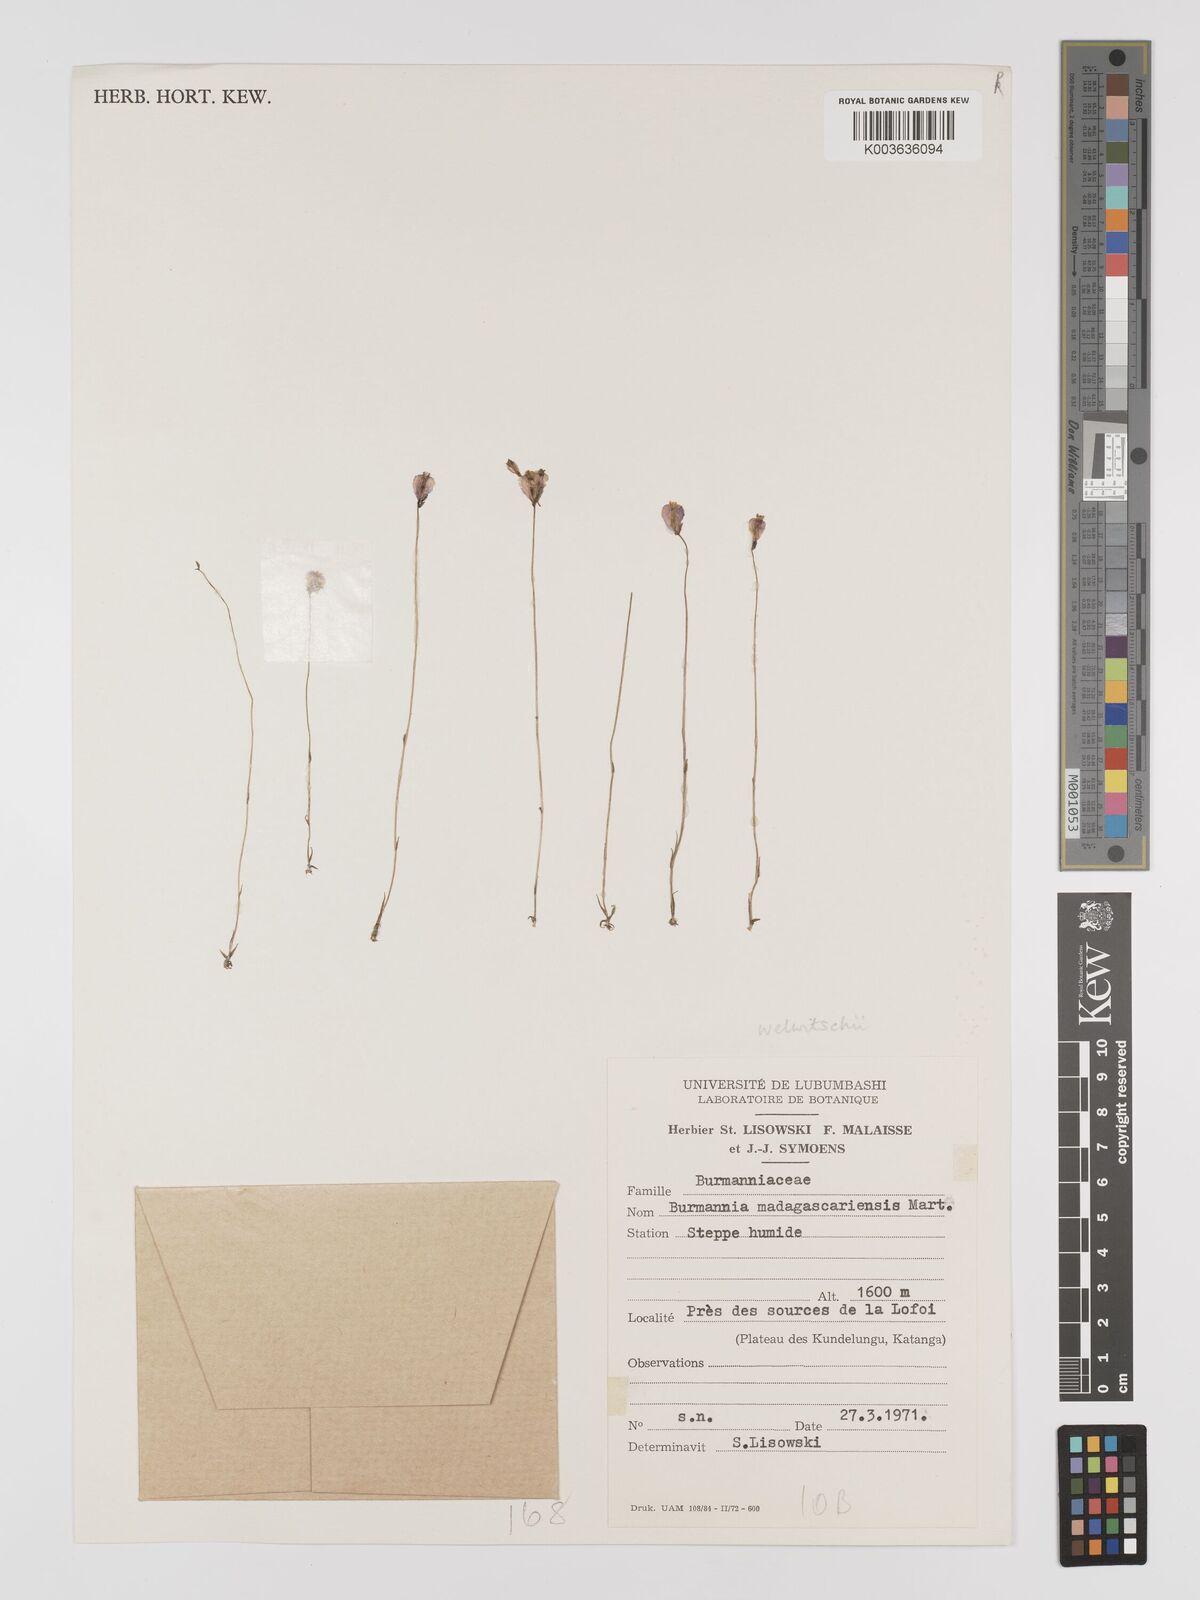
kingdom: Plantae
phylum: Tracheophyta
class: Liliopsida
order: Dioscoreales
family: Burmanniaceae
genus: Burmannia
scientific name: Burmannia madagascariensis
